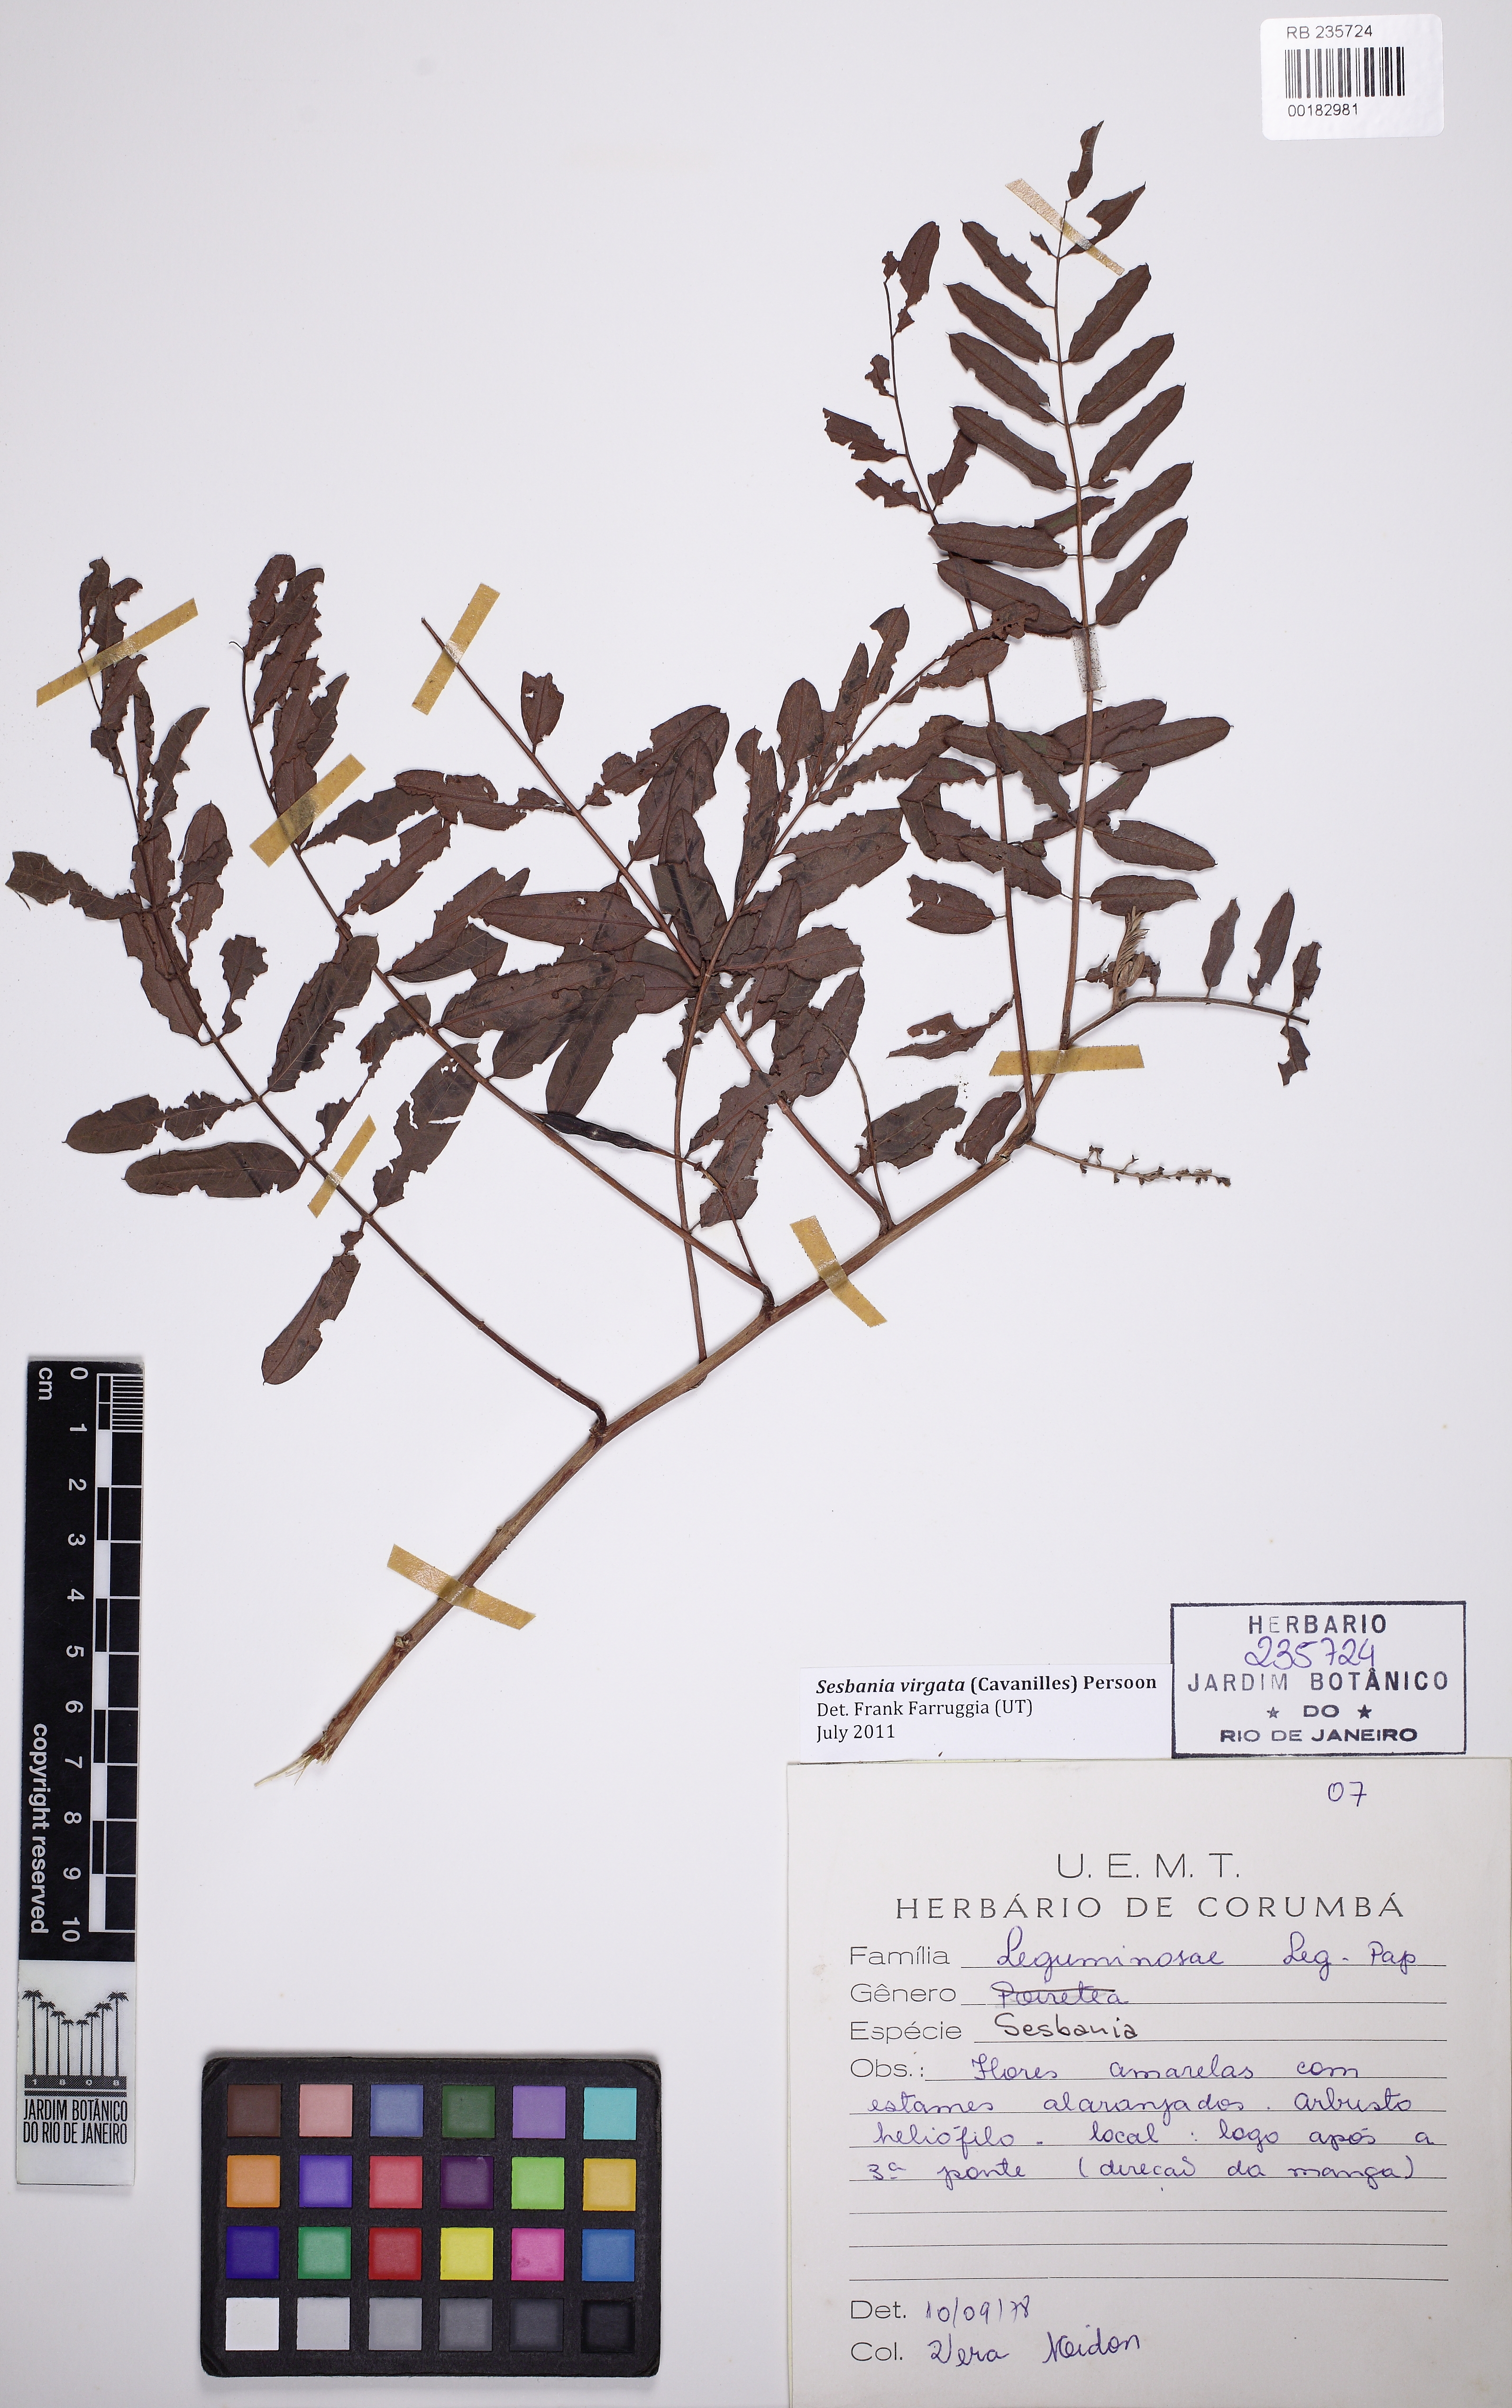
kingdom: Plantae
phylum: Tracheophyta
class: Magnoliopsida
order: Fabales
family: Fabaceae
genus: Sesbania
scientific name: Sesbania virgata
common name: Wand riverhemp
